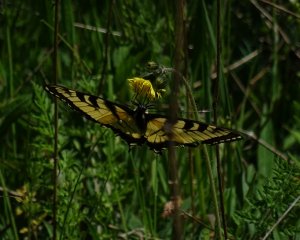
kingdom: Animalia
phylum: Arthropoda
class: Insecta
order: Lepidoptera
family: Papilionidae
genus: Pterourus
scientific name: Pterourus glaucus
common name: Eastern Tiger Swallowtail
